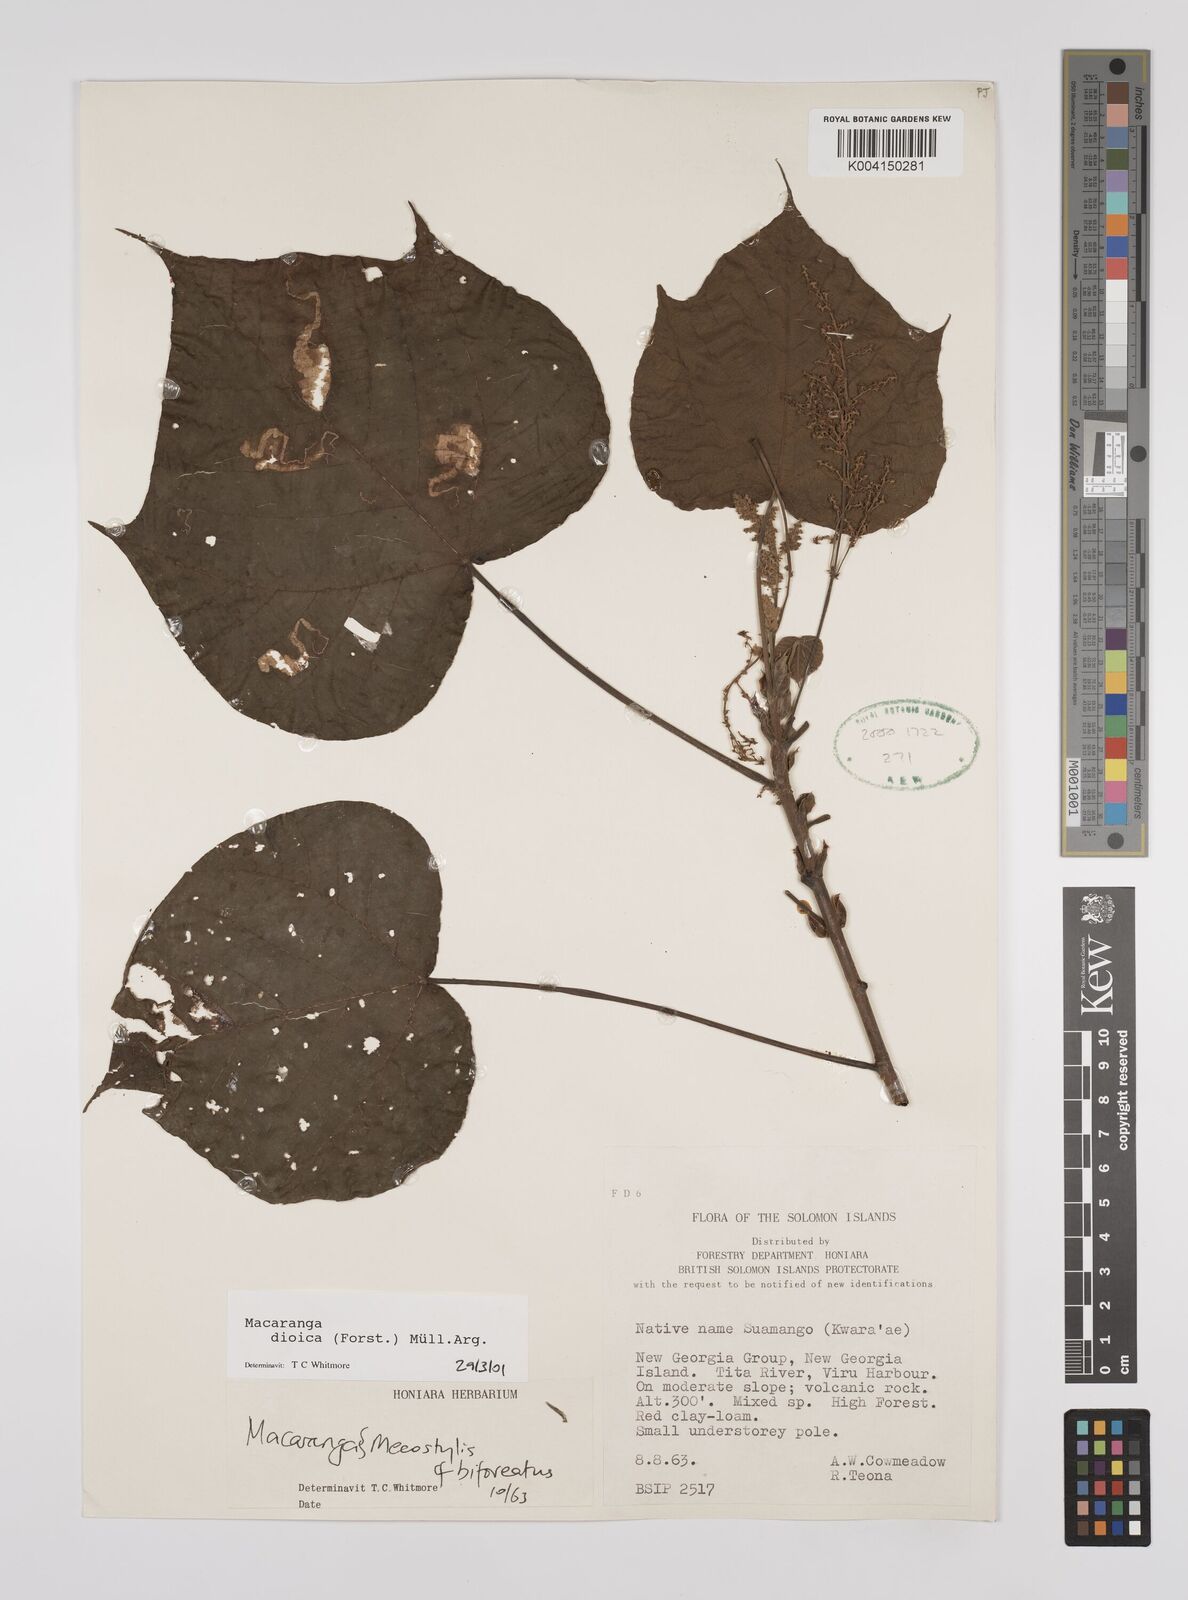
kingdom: Plantae
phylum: Tracheophyta
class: Magnoliopsida
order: Malpighiales
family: Euphorbiaceae
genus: Macaranga
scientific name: Macaranga dioica
